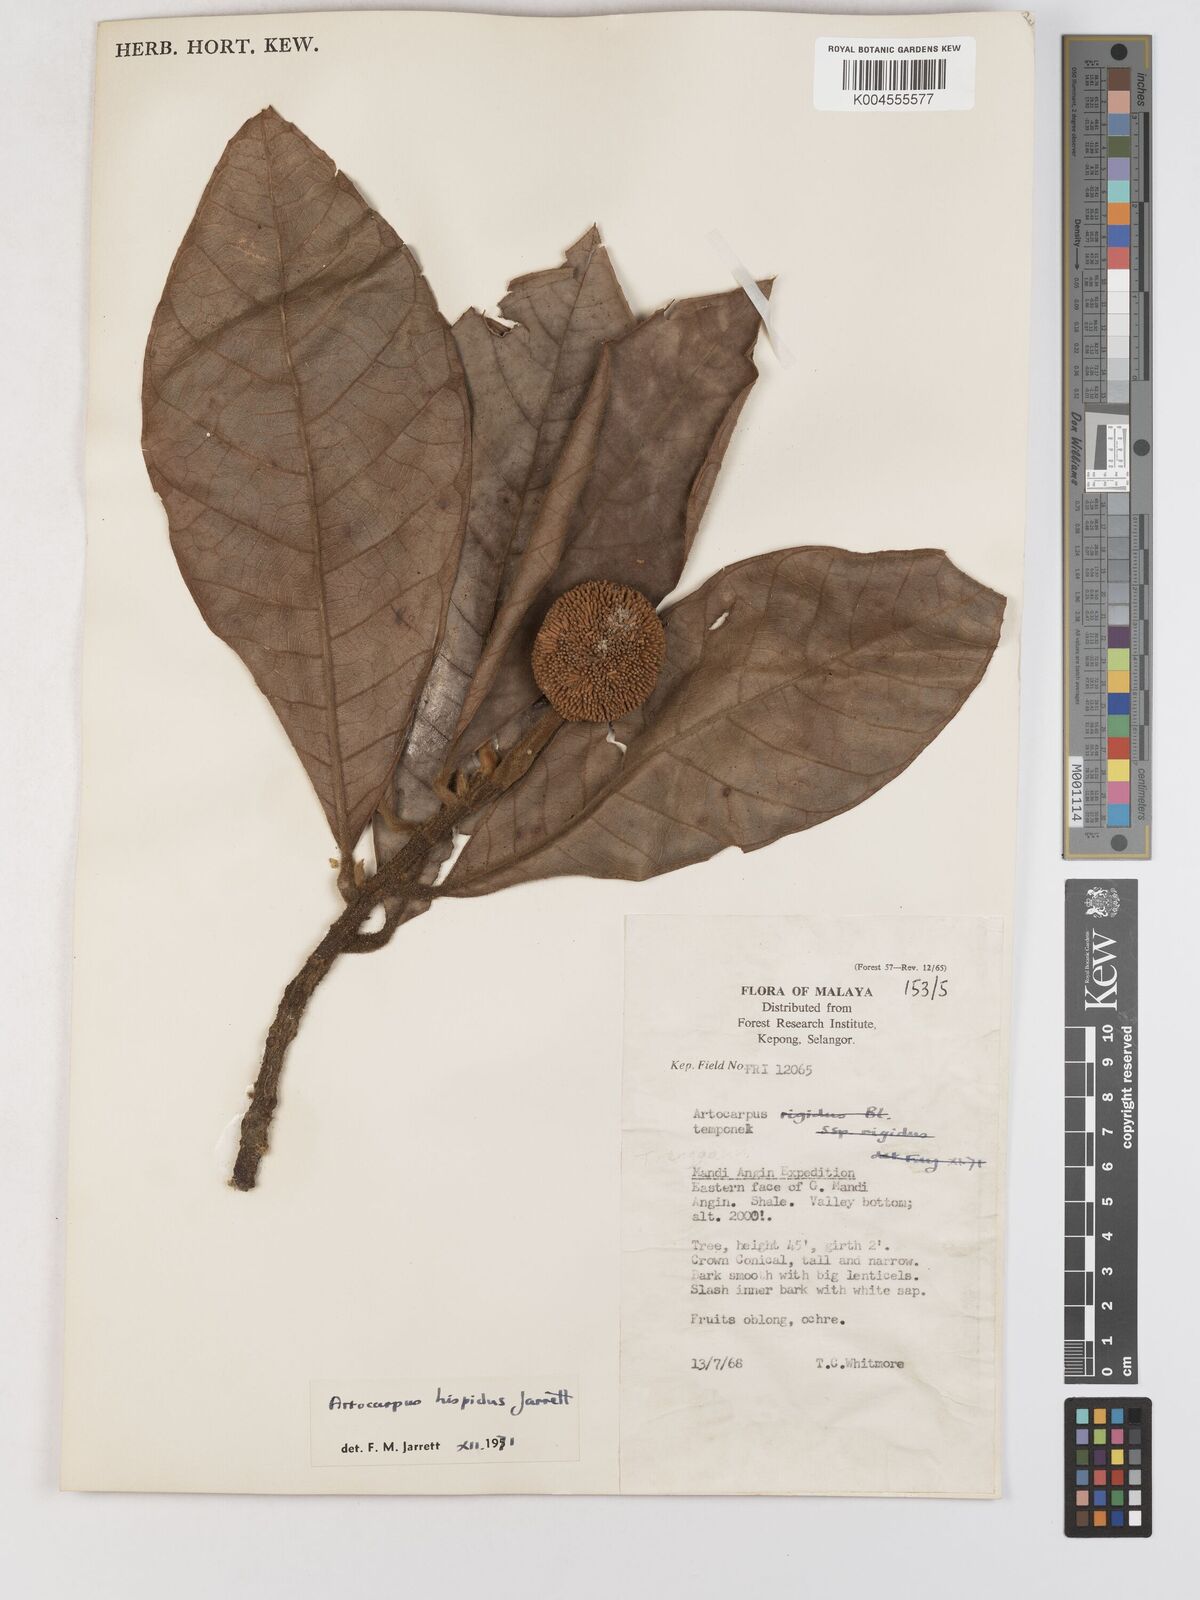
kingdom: Plantae
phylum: Tracheophyta
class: Magnoliopsida
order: Rosales
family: Moraceae
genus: Artocarpus
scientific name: Artocarpus hispidus
